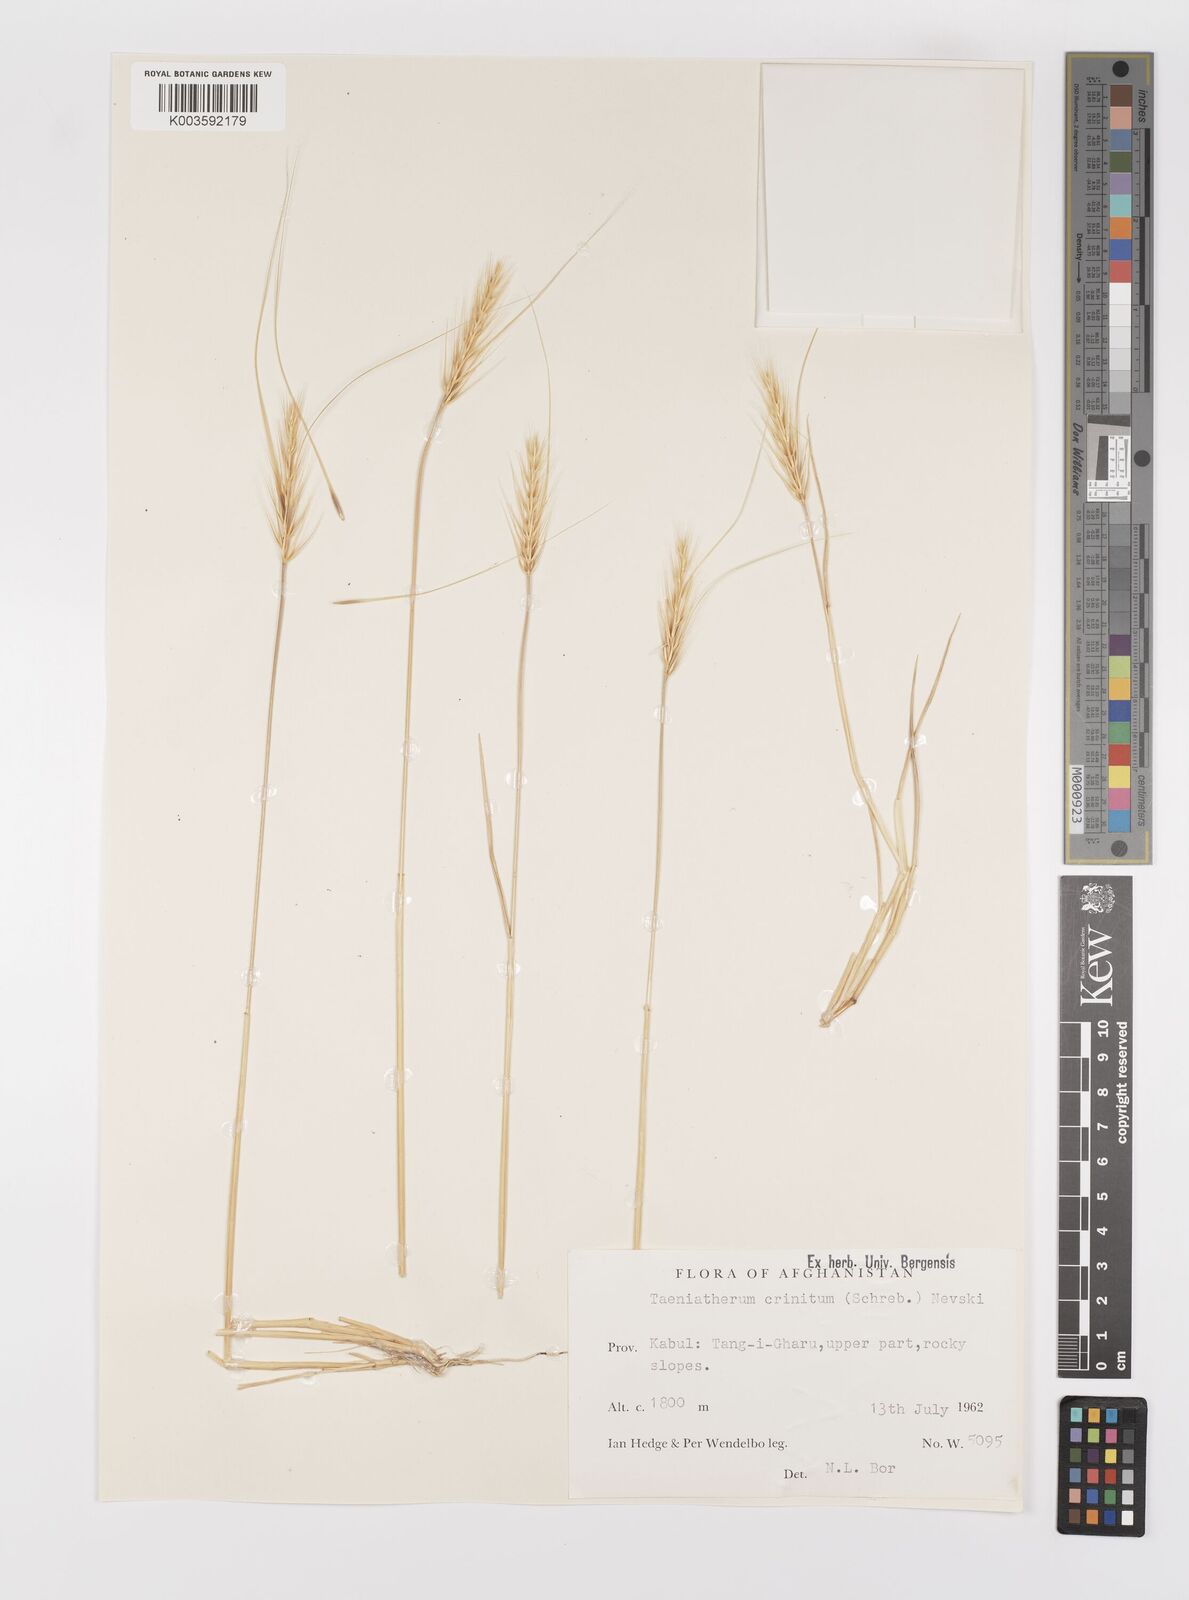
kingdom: Plantae
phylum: Tracheophyta
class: Liliopsida
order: Poales
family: Poaceae
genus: Taeniatherum
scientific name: Taeniatherum caput-medusae
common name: Medusahead
